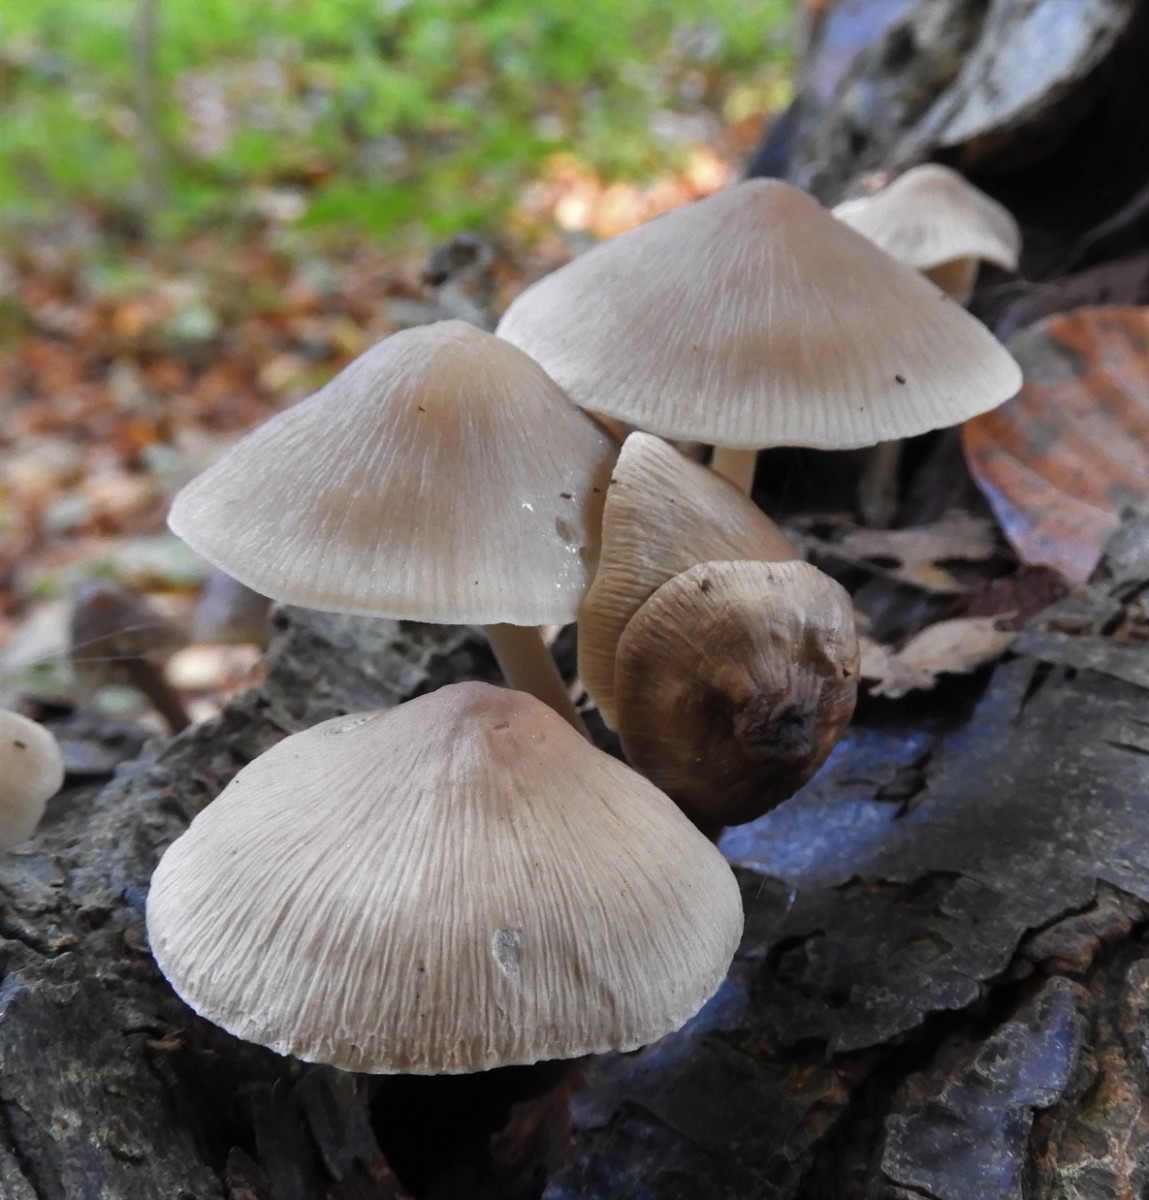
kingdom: Fungi
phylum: Basidiomycota
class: Agaricomycetes
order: Agaricales
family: Mycenaceae
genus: Mycena
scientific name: Mycena galericulata
